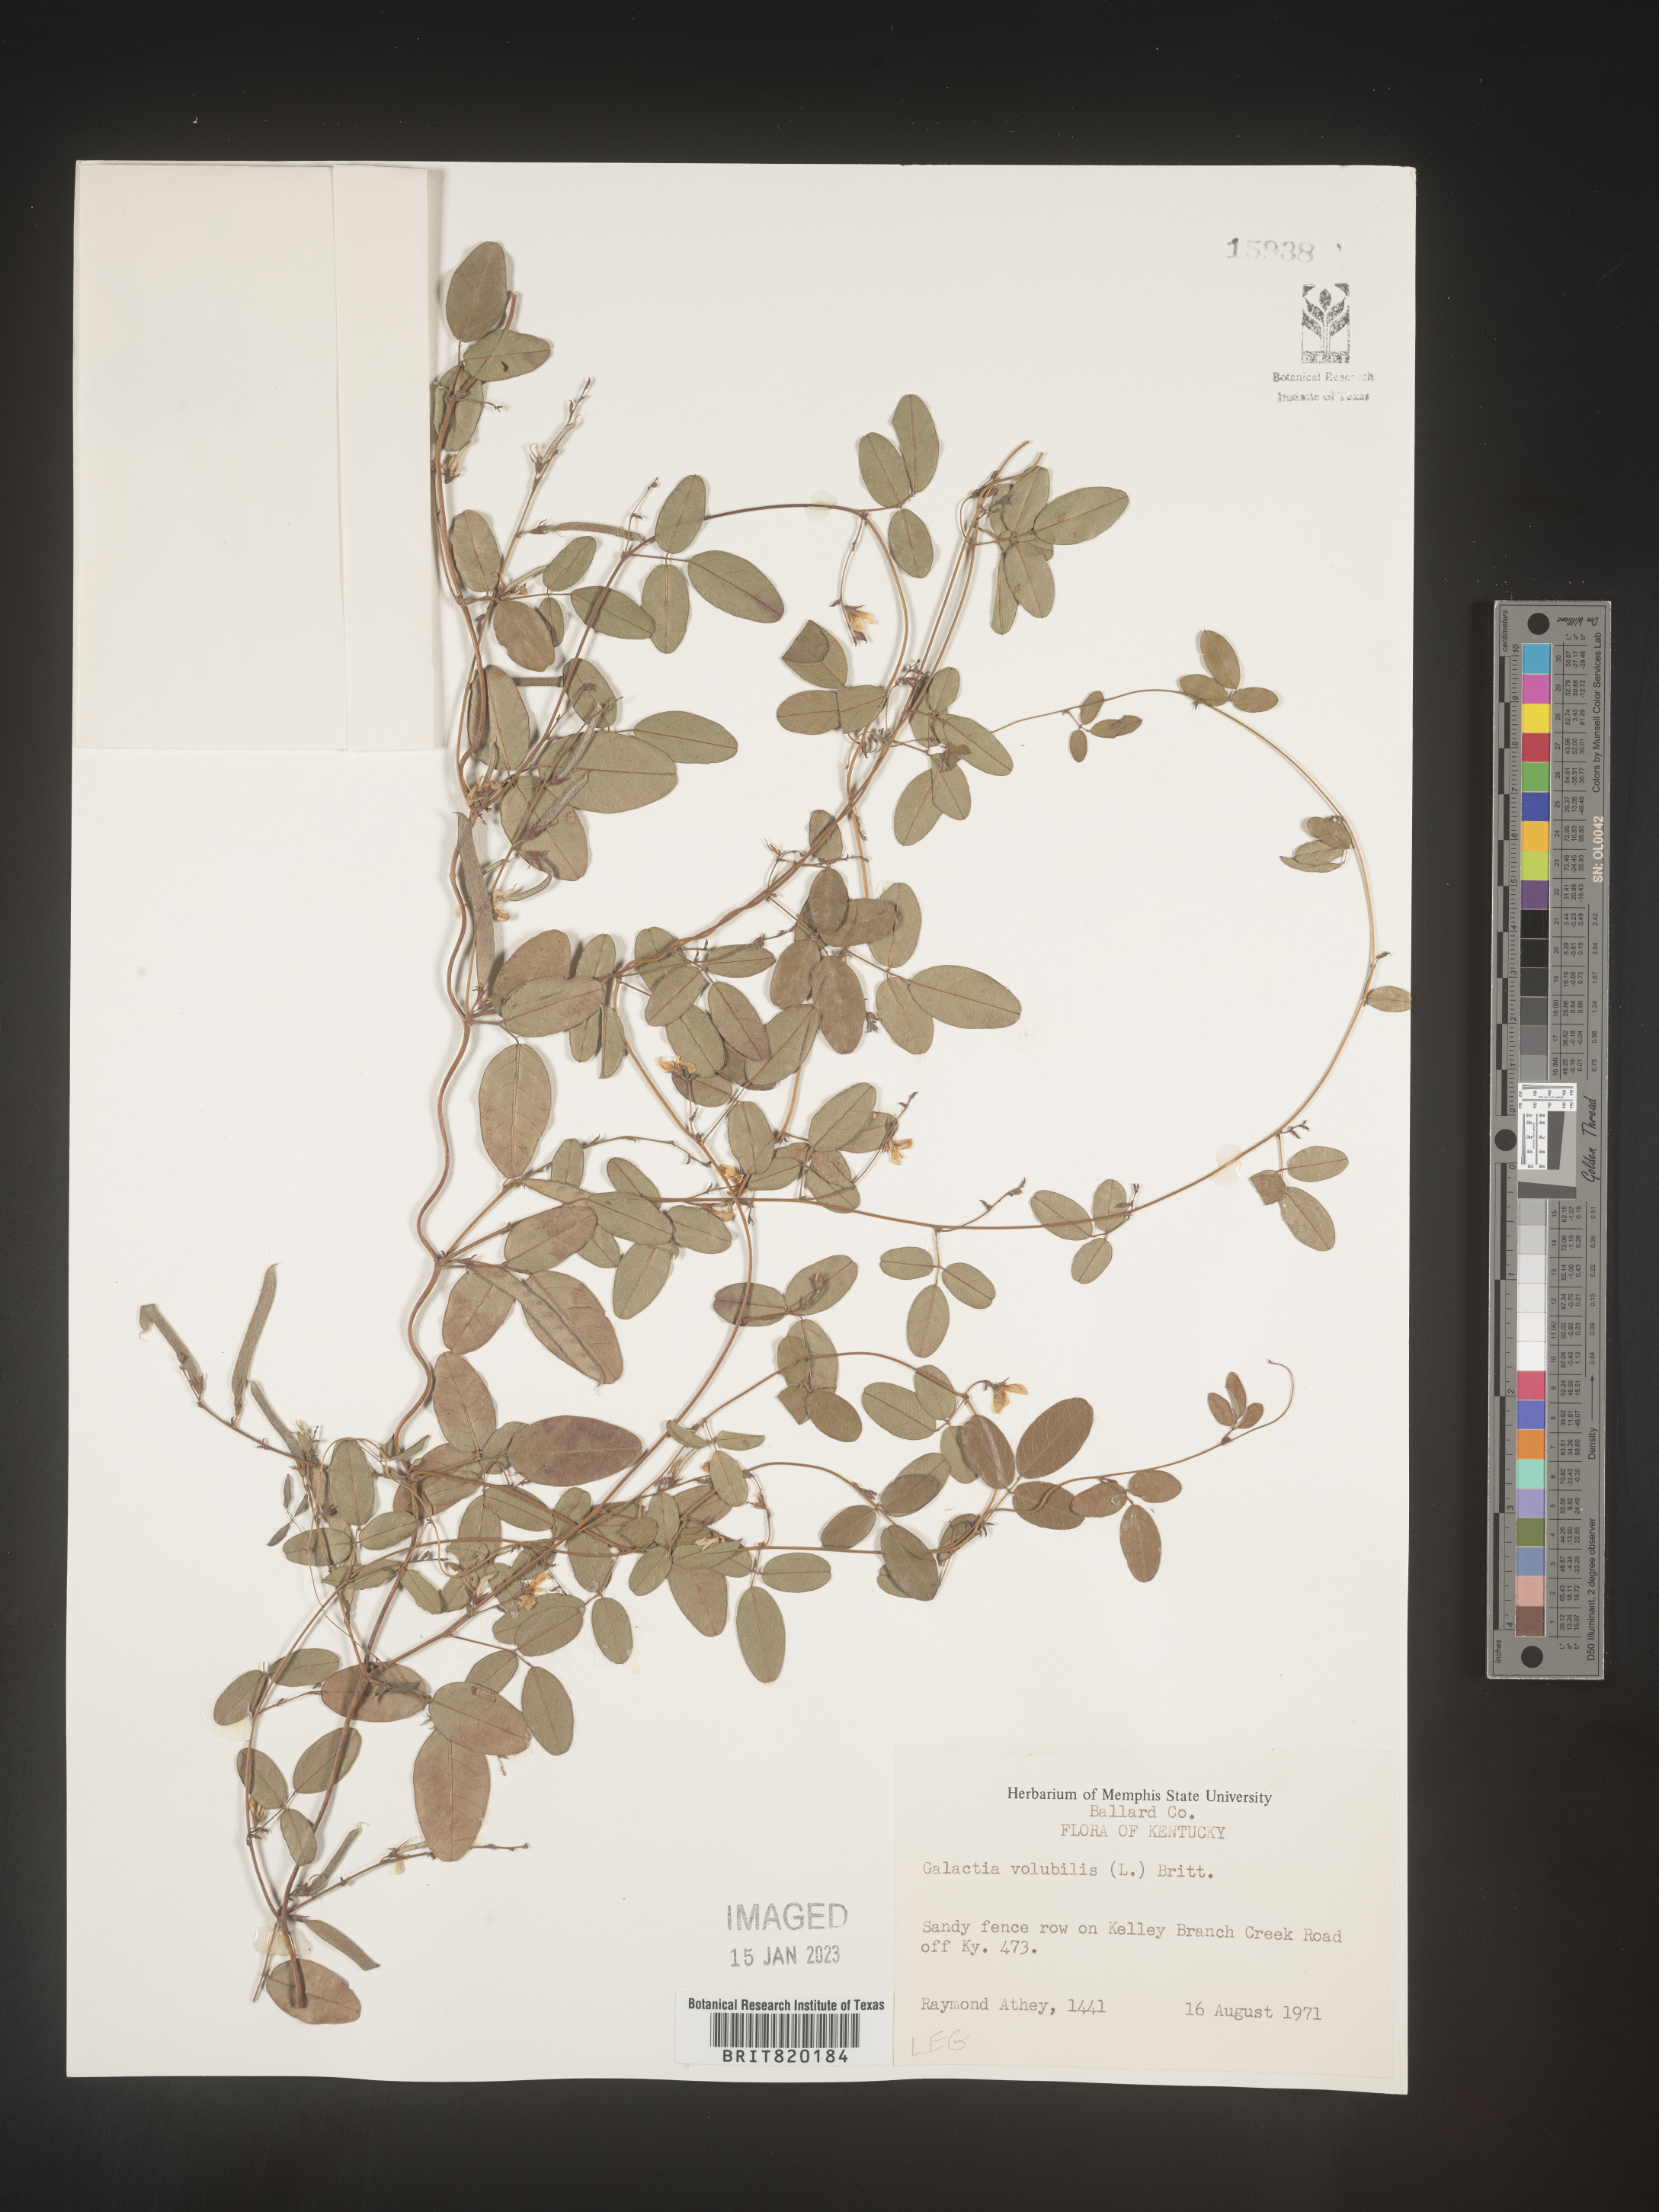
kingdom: Plantae
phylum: Tracheophyta
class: Magnoliopsida
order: Fabales
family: Fabaceae
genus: Galactia
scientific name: Galactia volubilis
